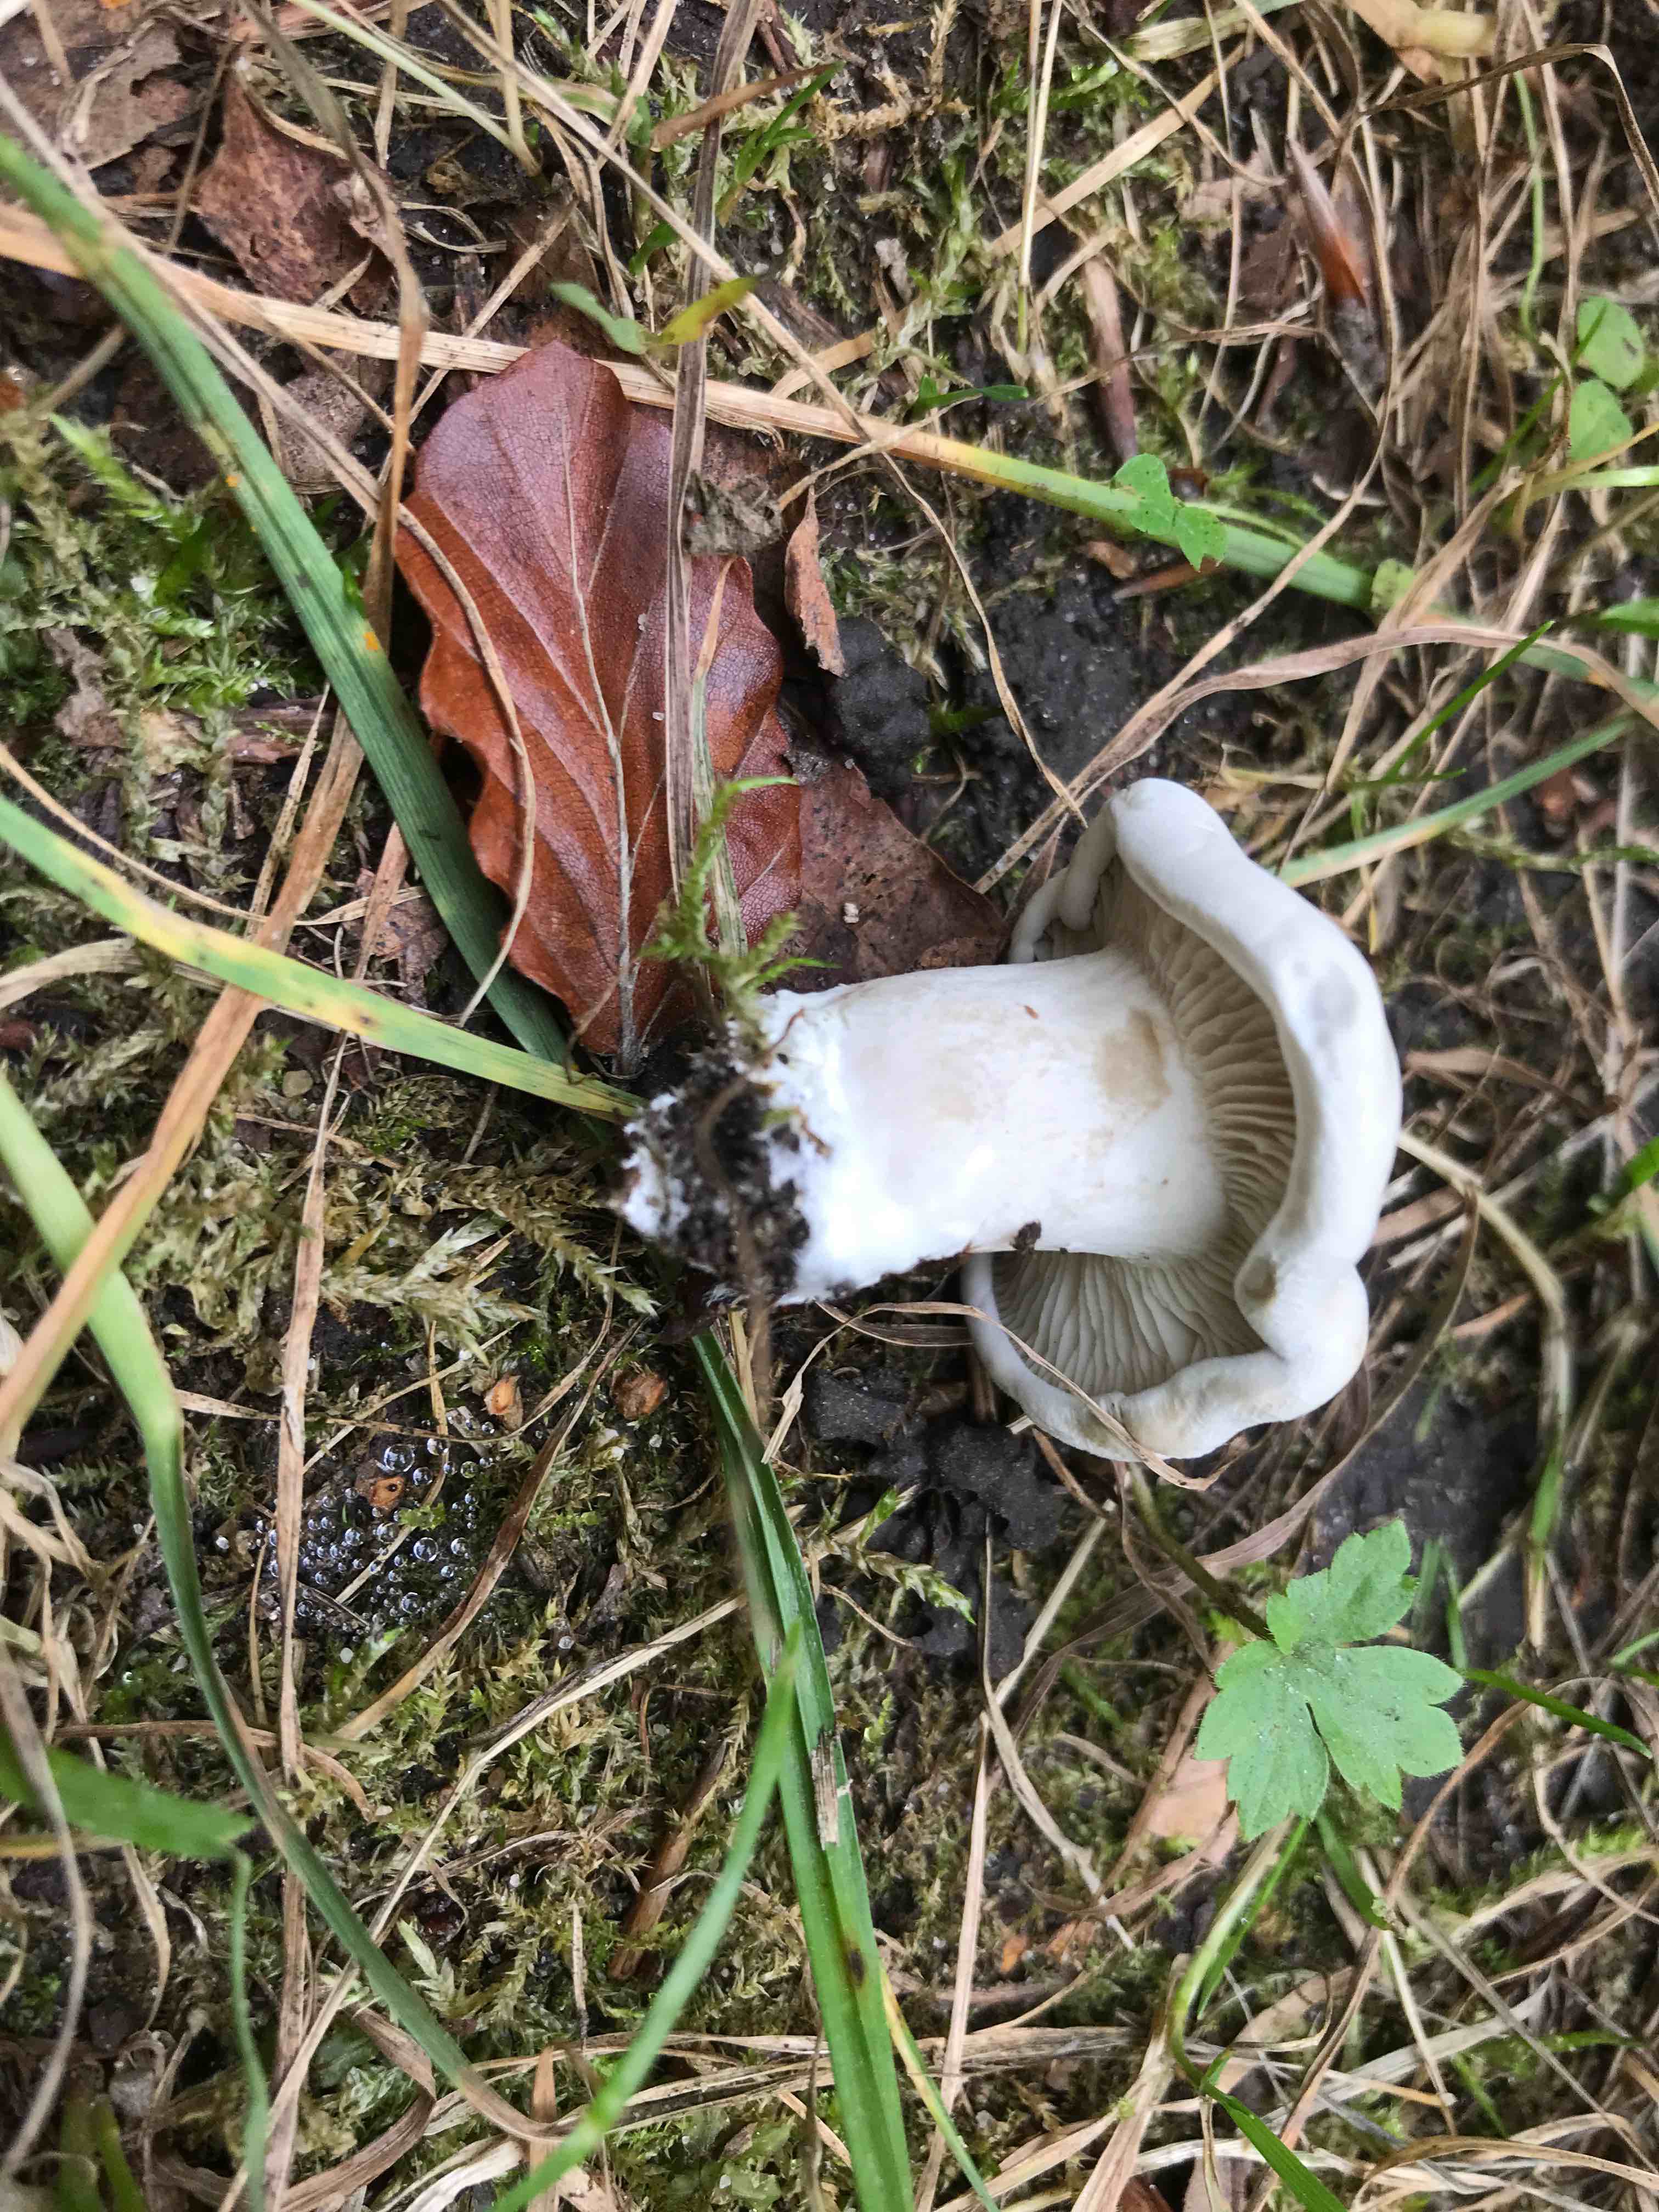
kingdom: Fungi
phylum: Basidiomycota
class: Agaricomycetes
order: Agaricales
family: Entolomataceae
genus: Clitopilus
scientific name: Clitopilus prunulus
